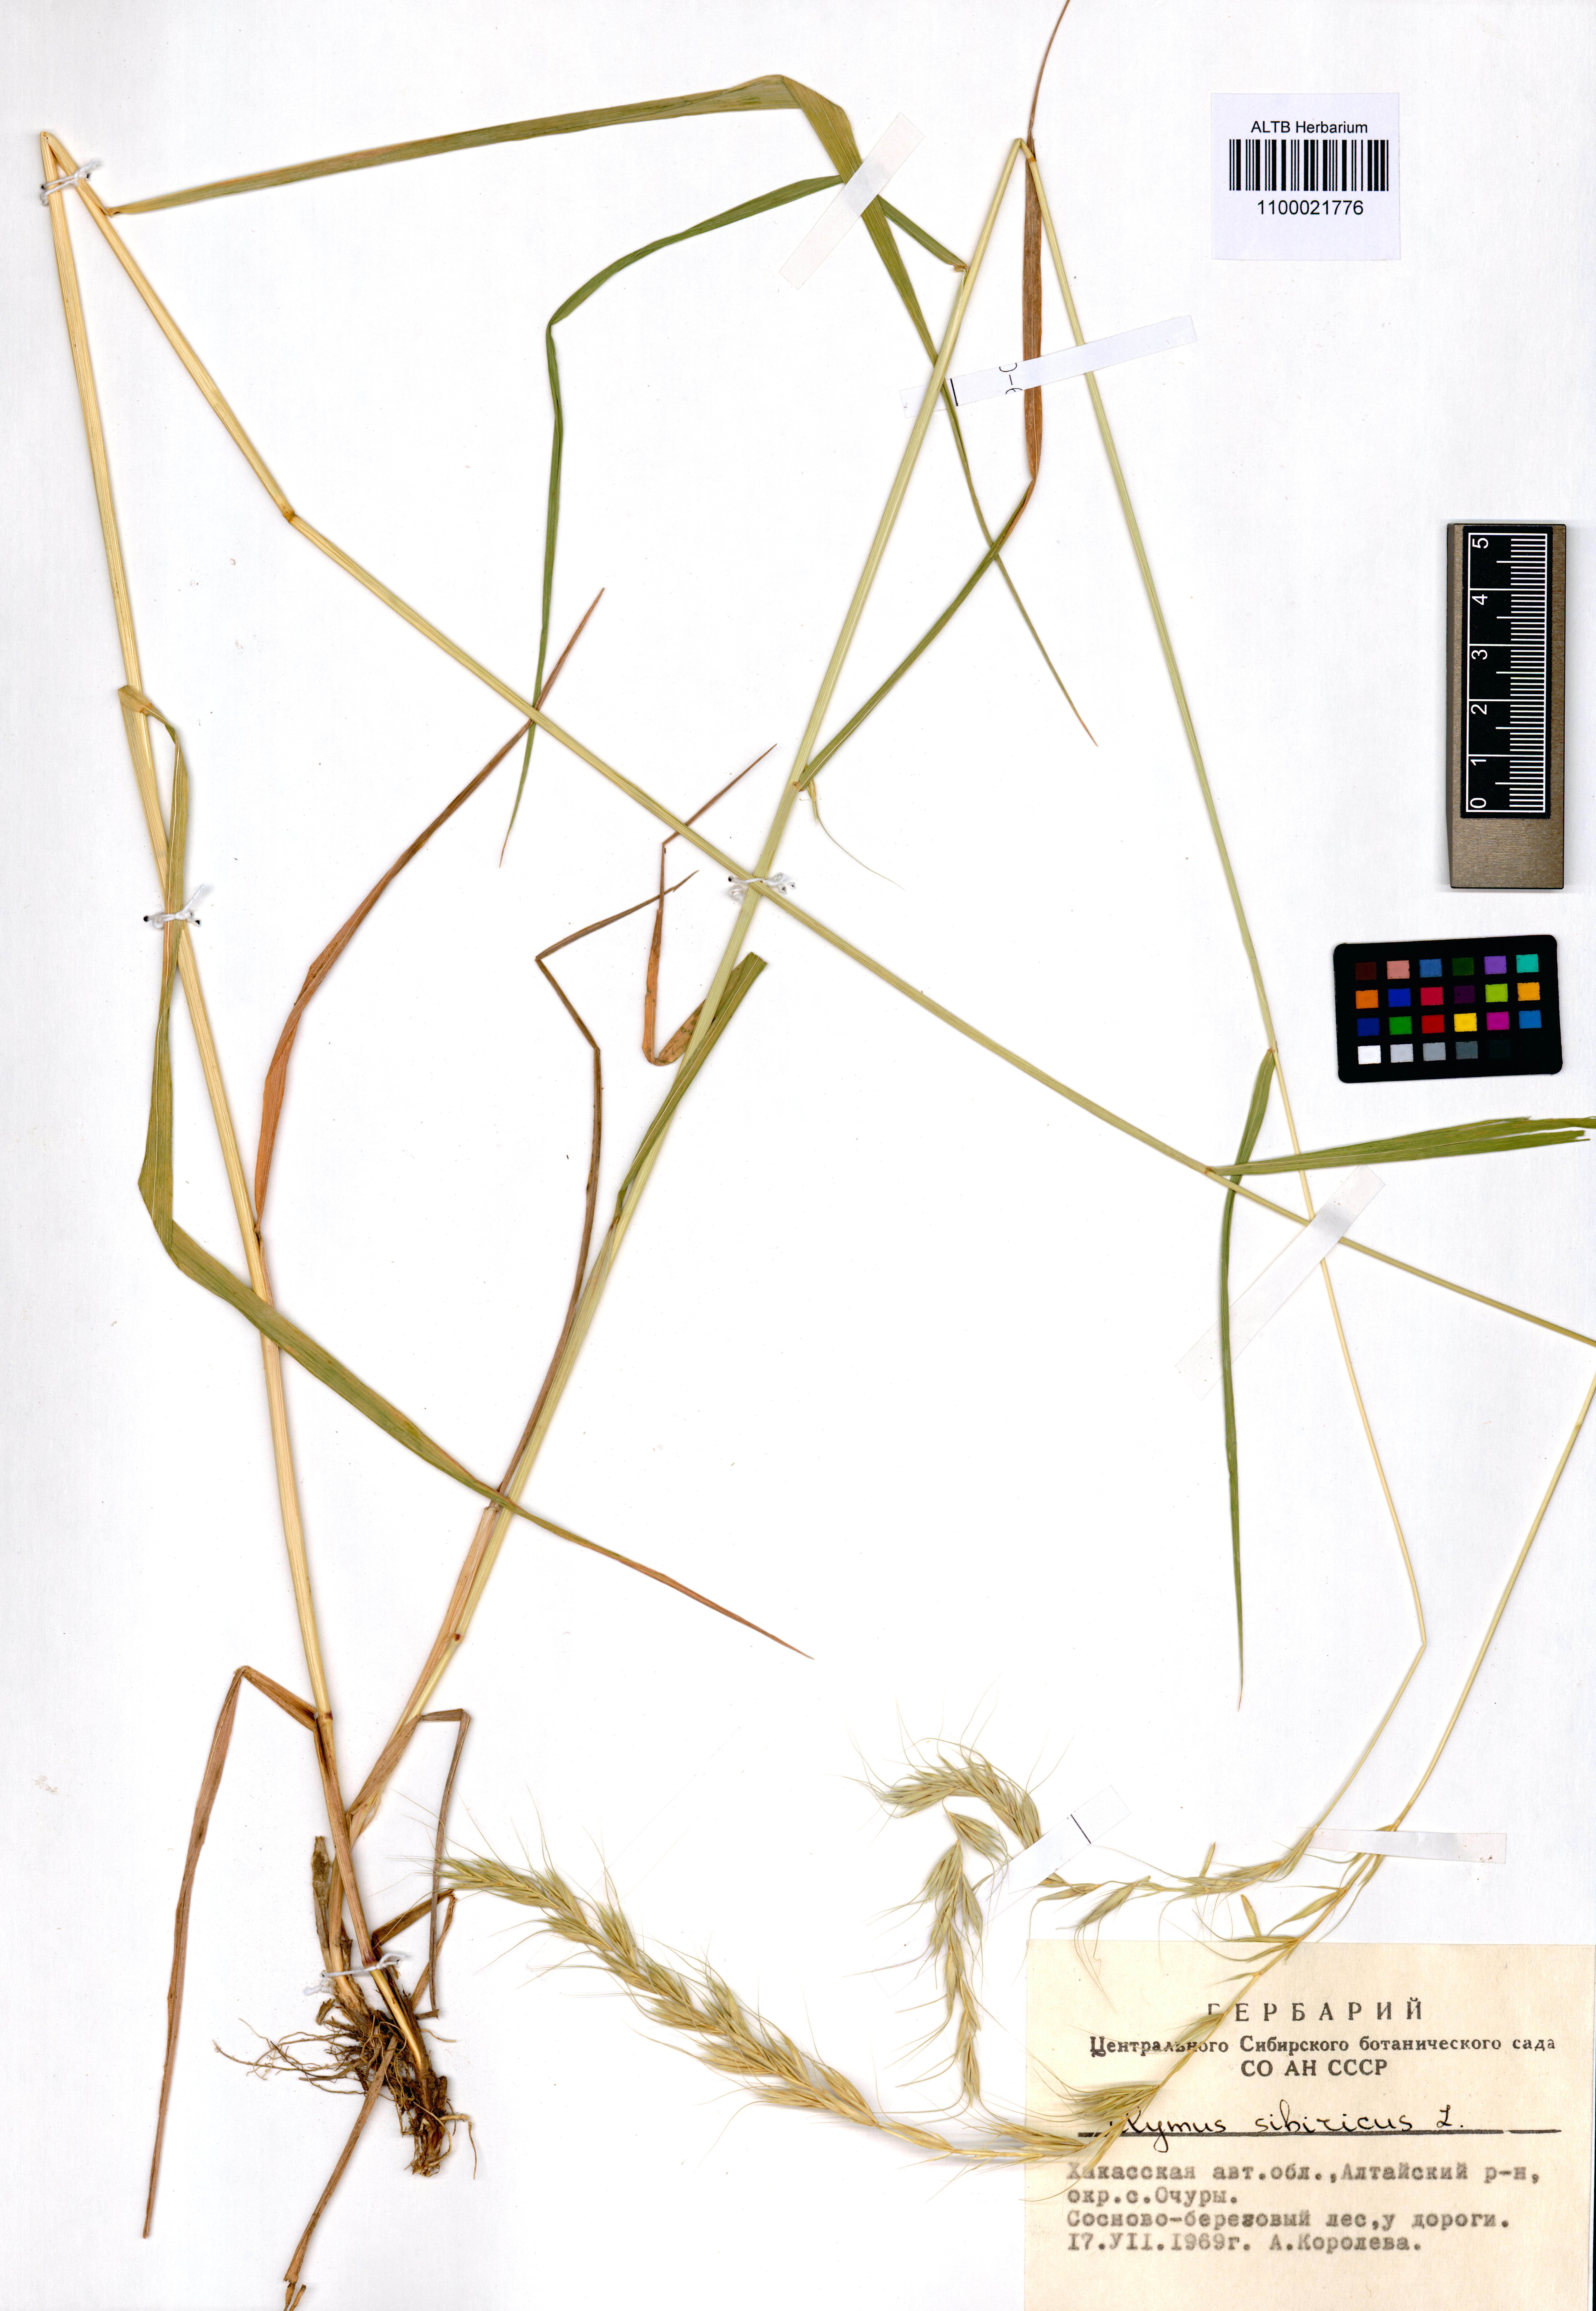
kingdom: Plantae
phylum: Tracheophyta
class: Liliopsida
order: Poales
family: Poaceae
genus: Elymus
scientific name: Elymus sibiricus
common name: Siberian wildrye
